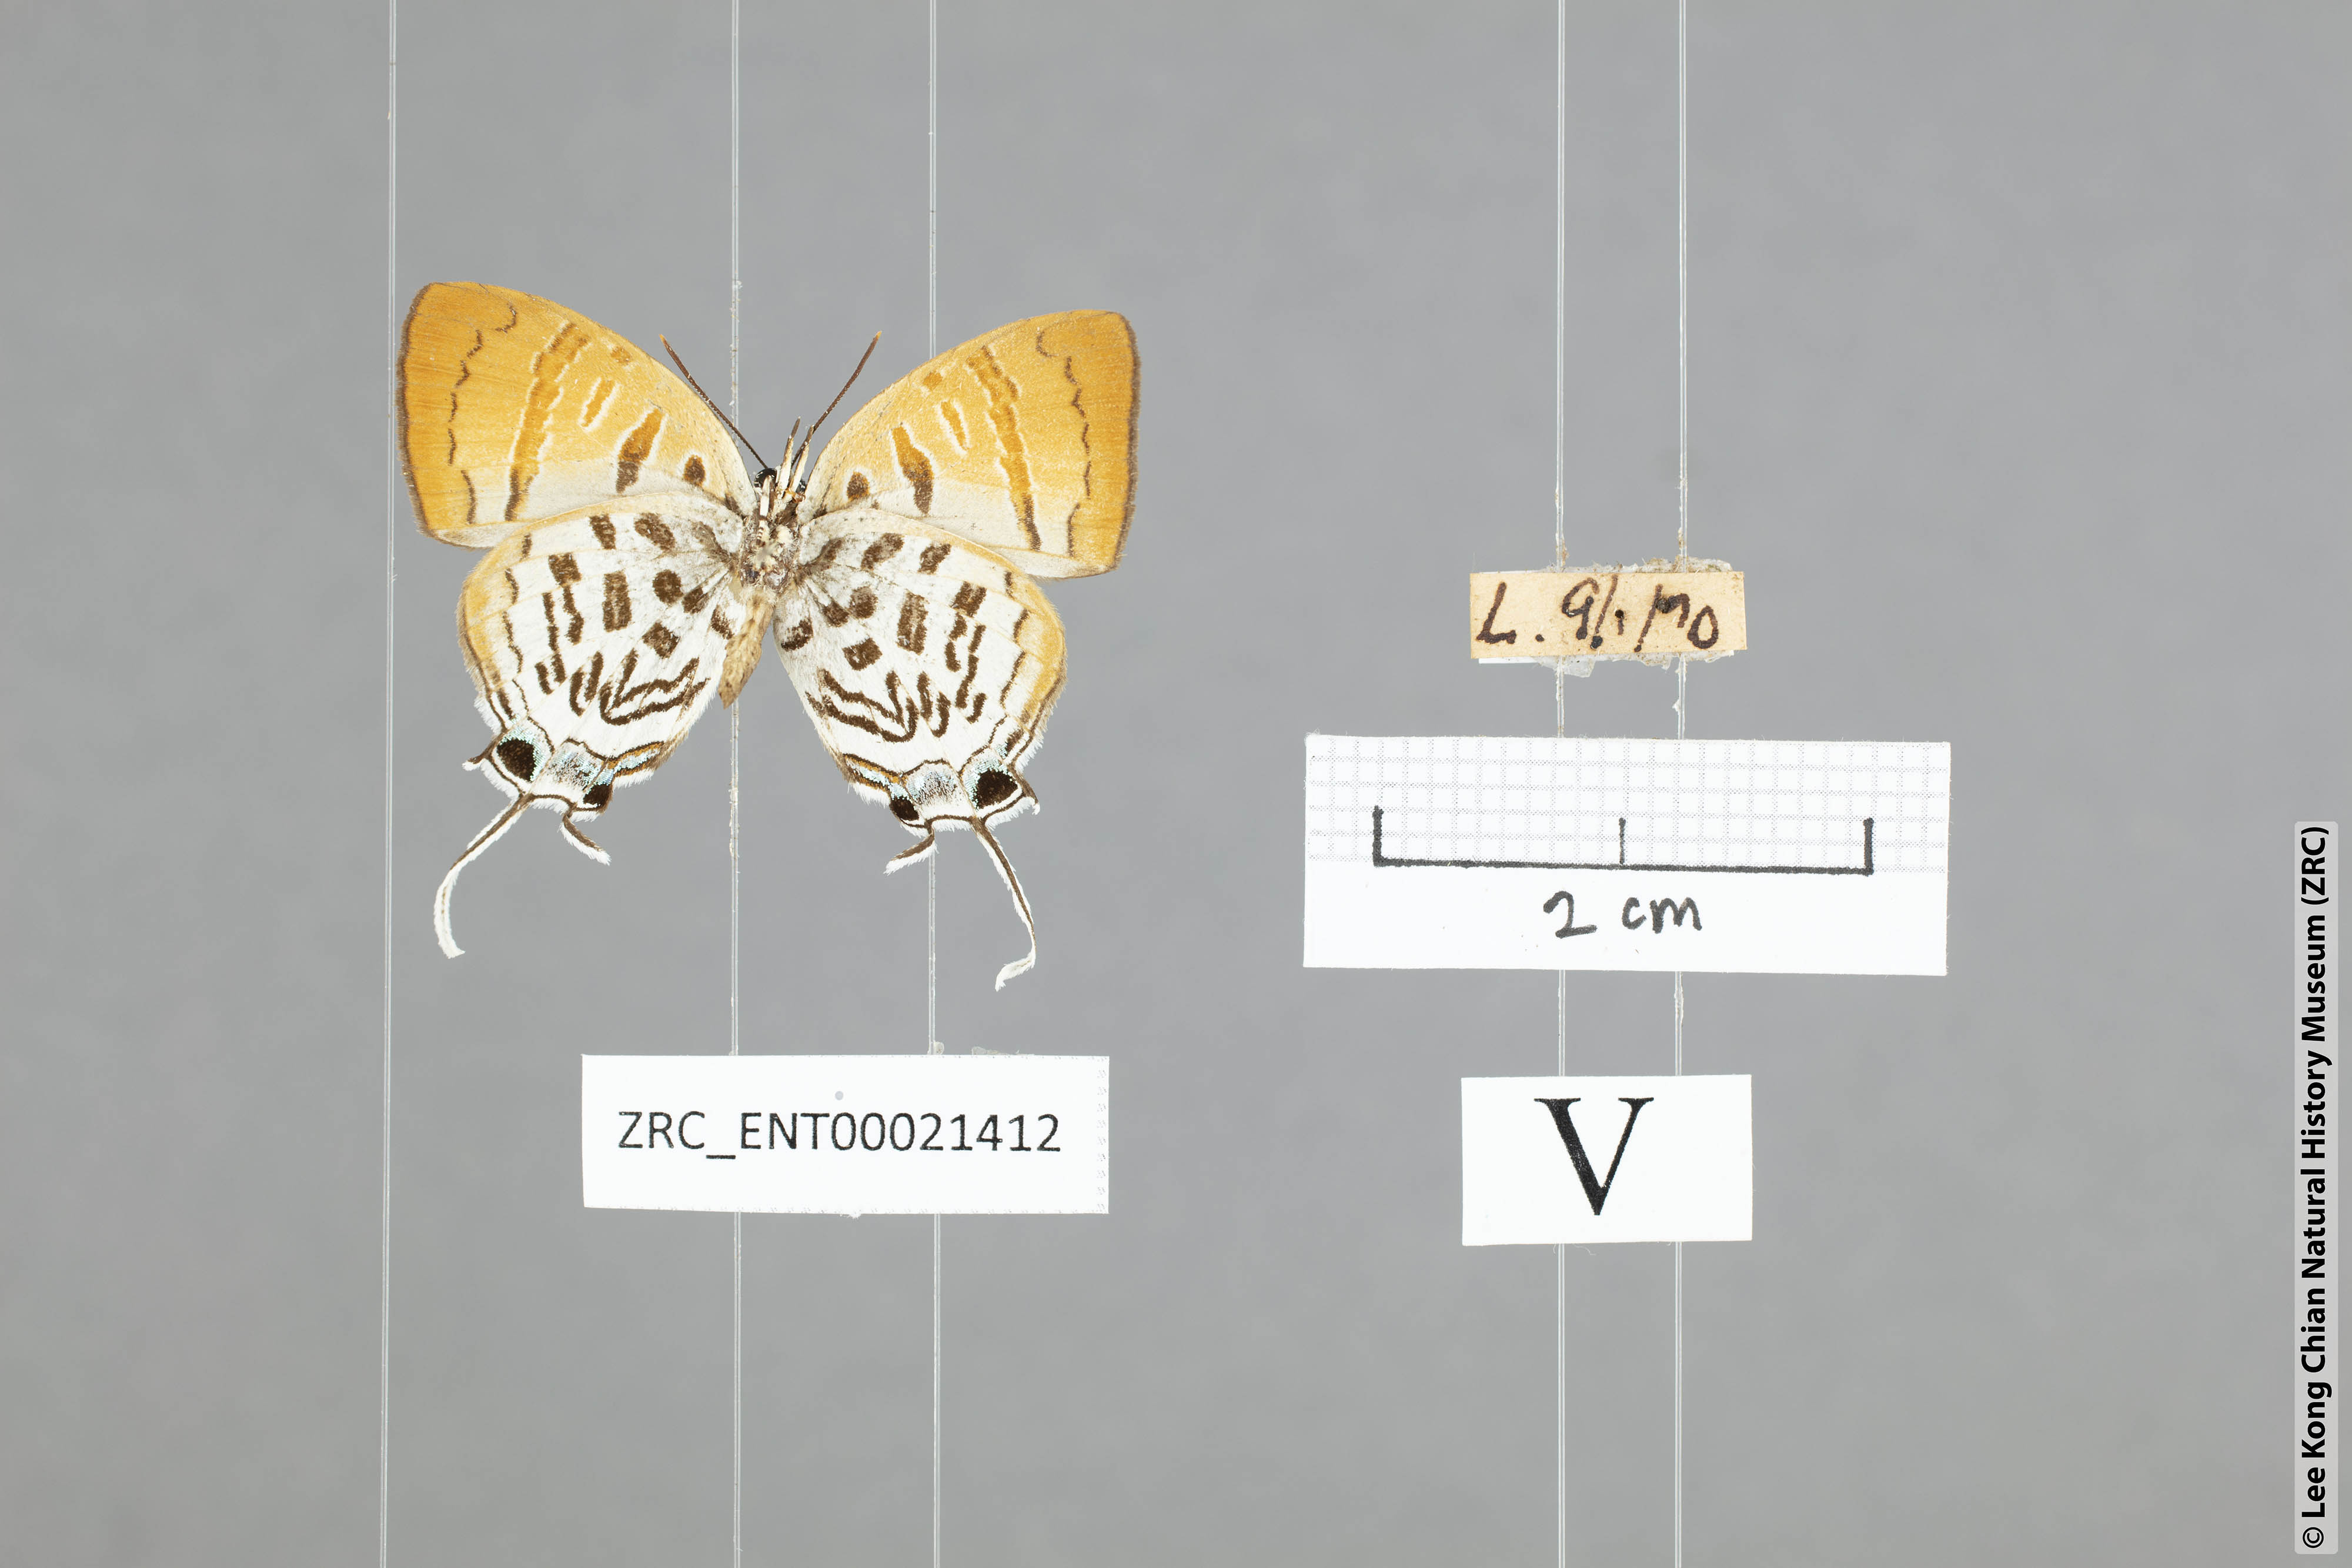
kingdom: Animalia
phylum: Arthropoda
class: Insecta
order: Lepidoptera
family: Lycaenidae
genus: Drupadia
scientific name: Drupadia theda
